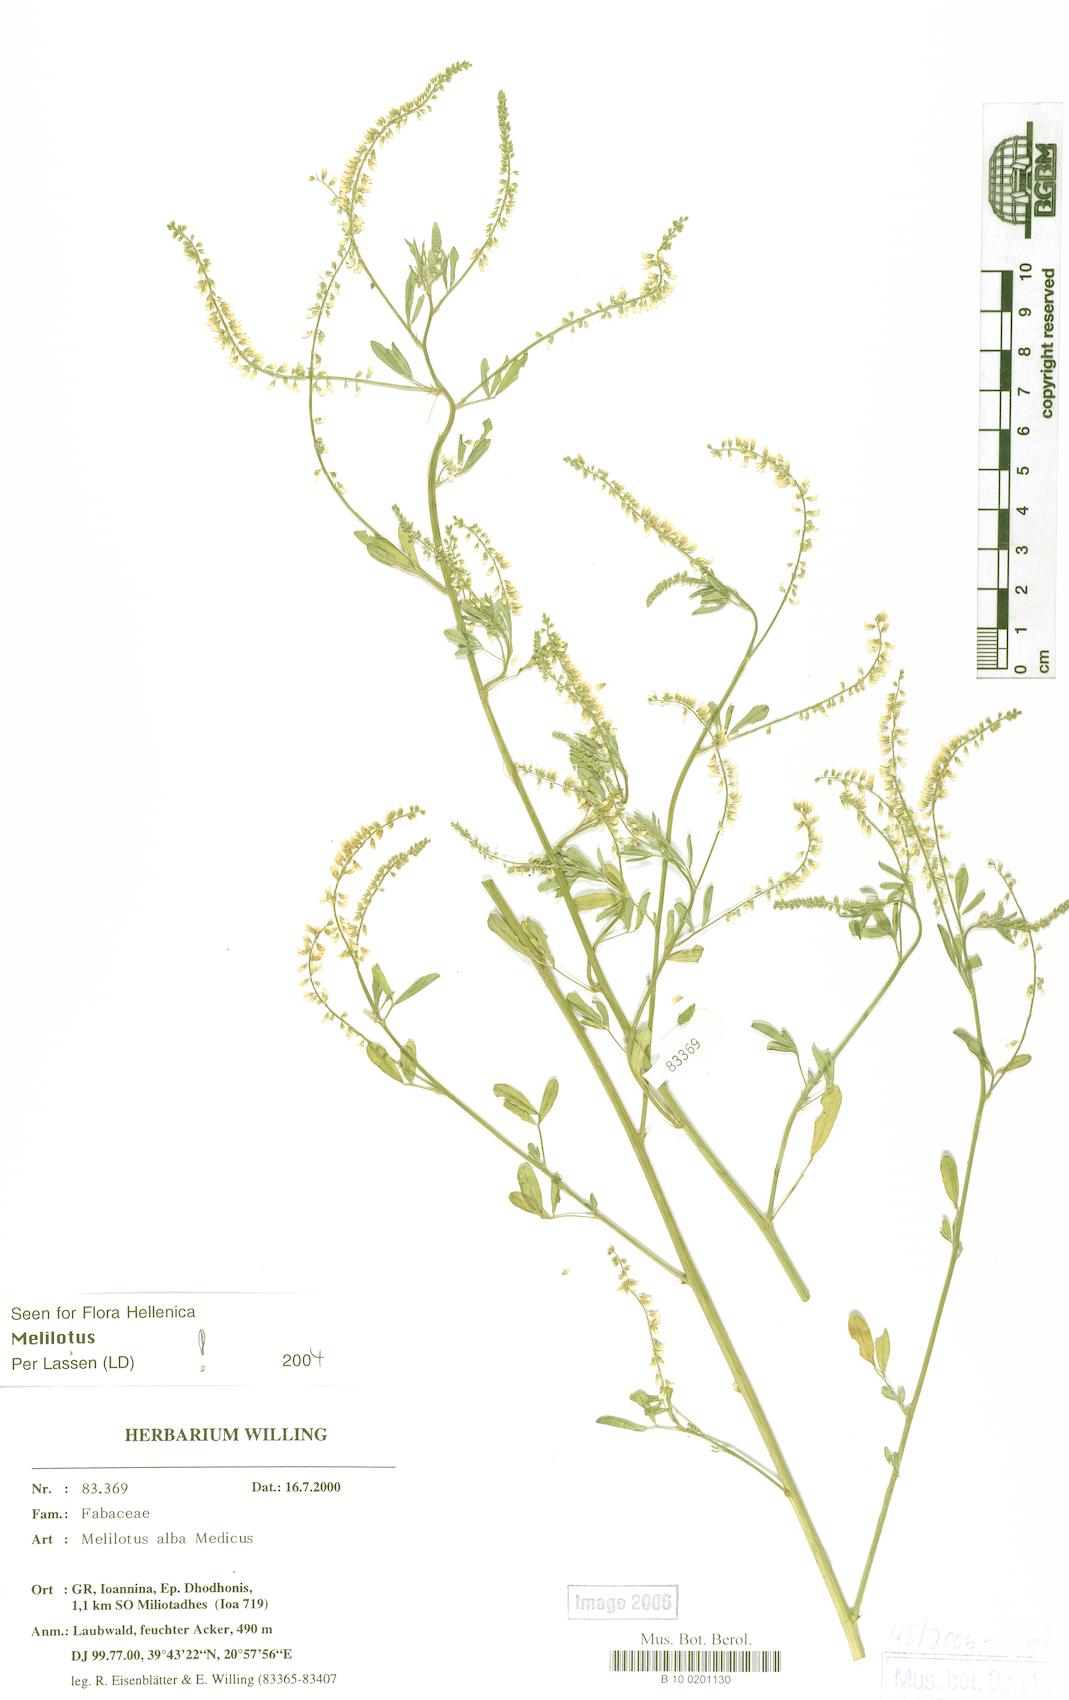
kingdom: Plantae
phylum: Tracheophyta
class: Magnoliopsida
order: Fabales
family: Fabaceae
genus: Melilotus
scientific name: Melilotus albus
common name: White melilot
